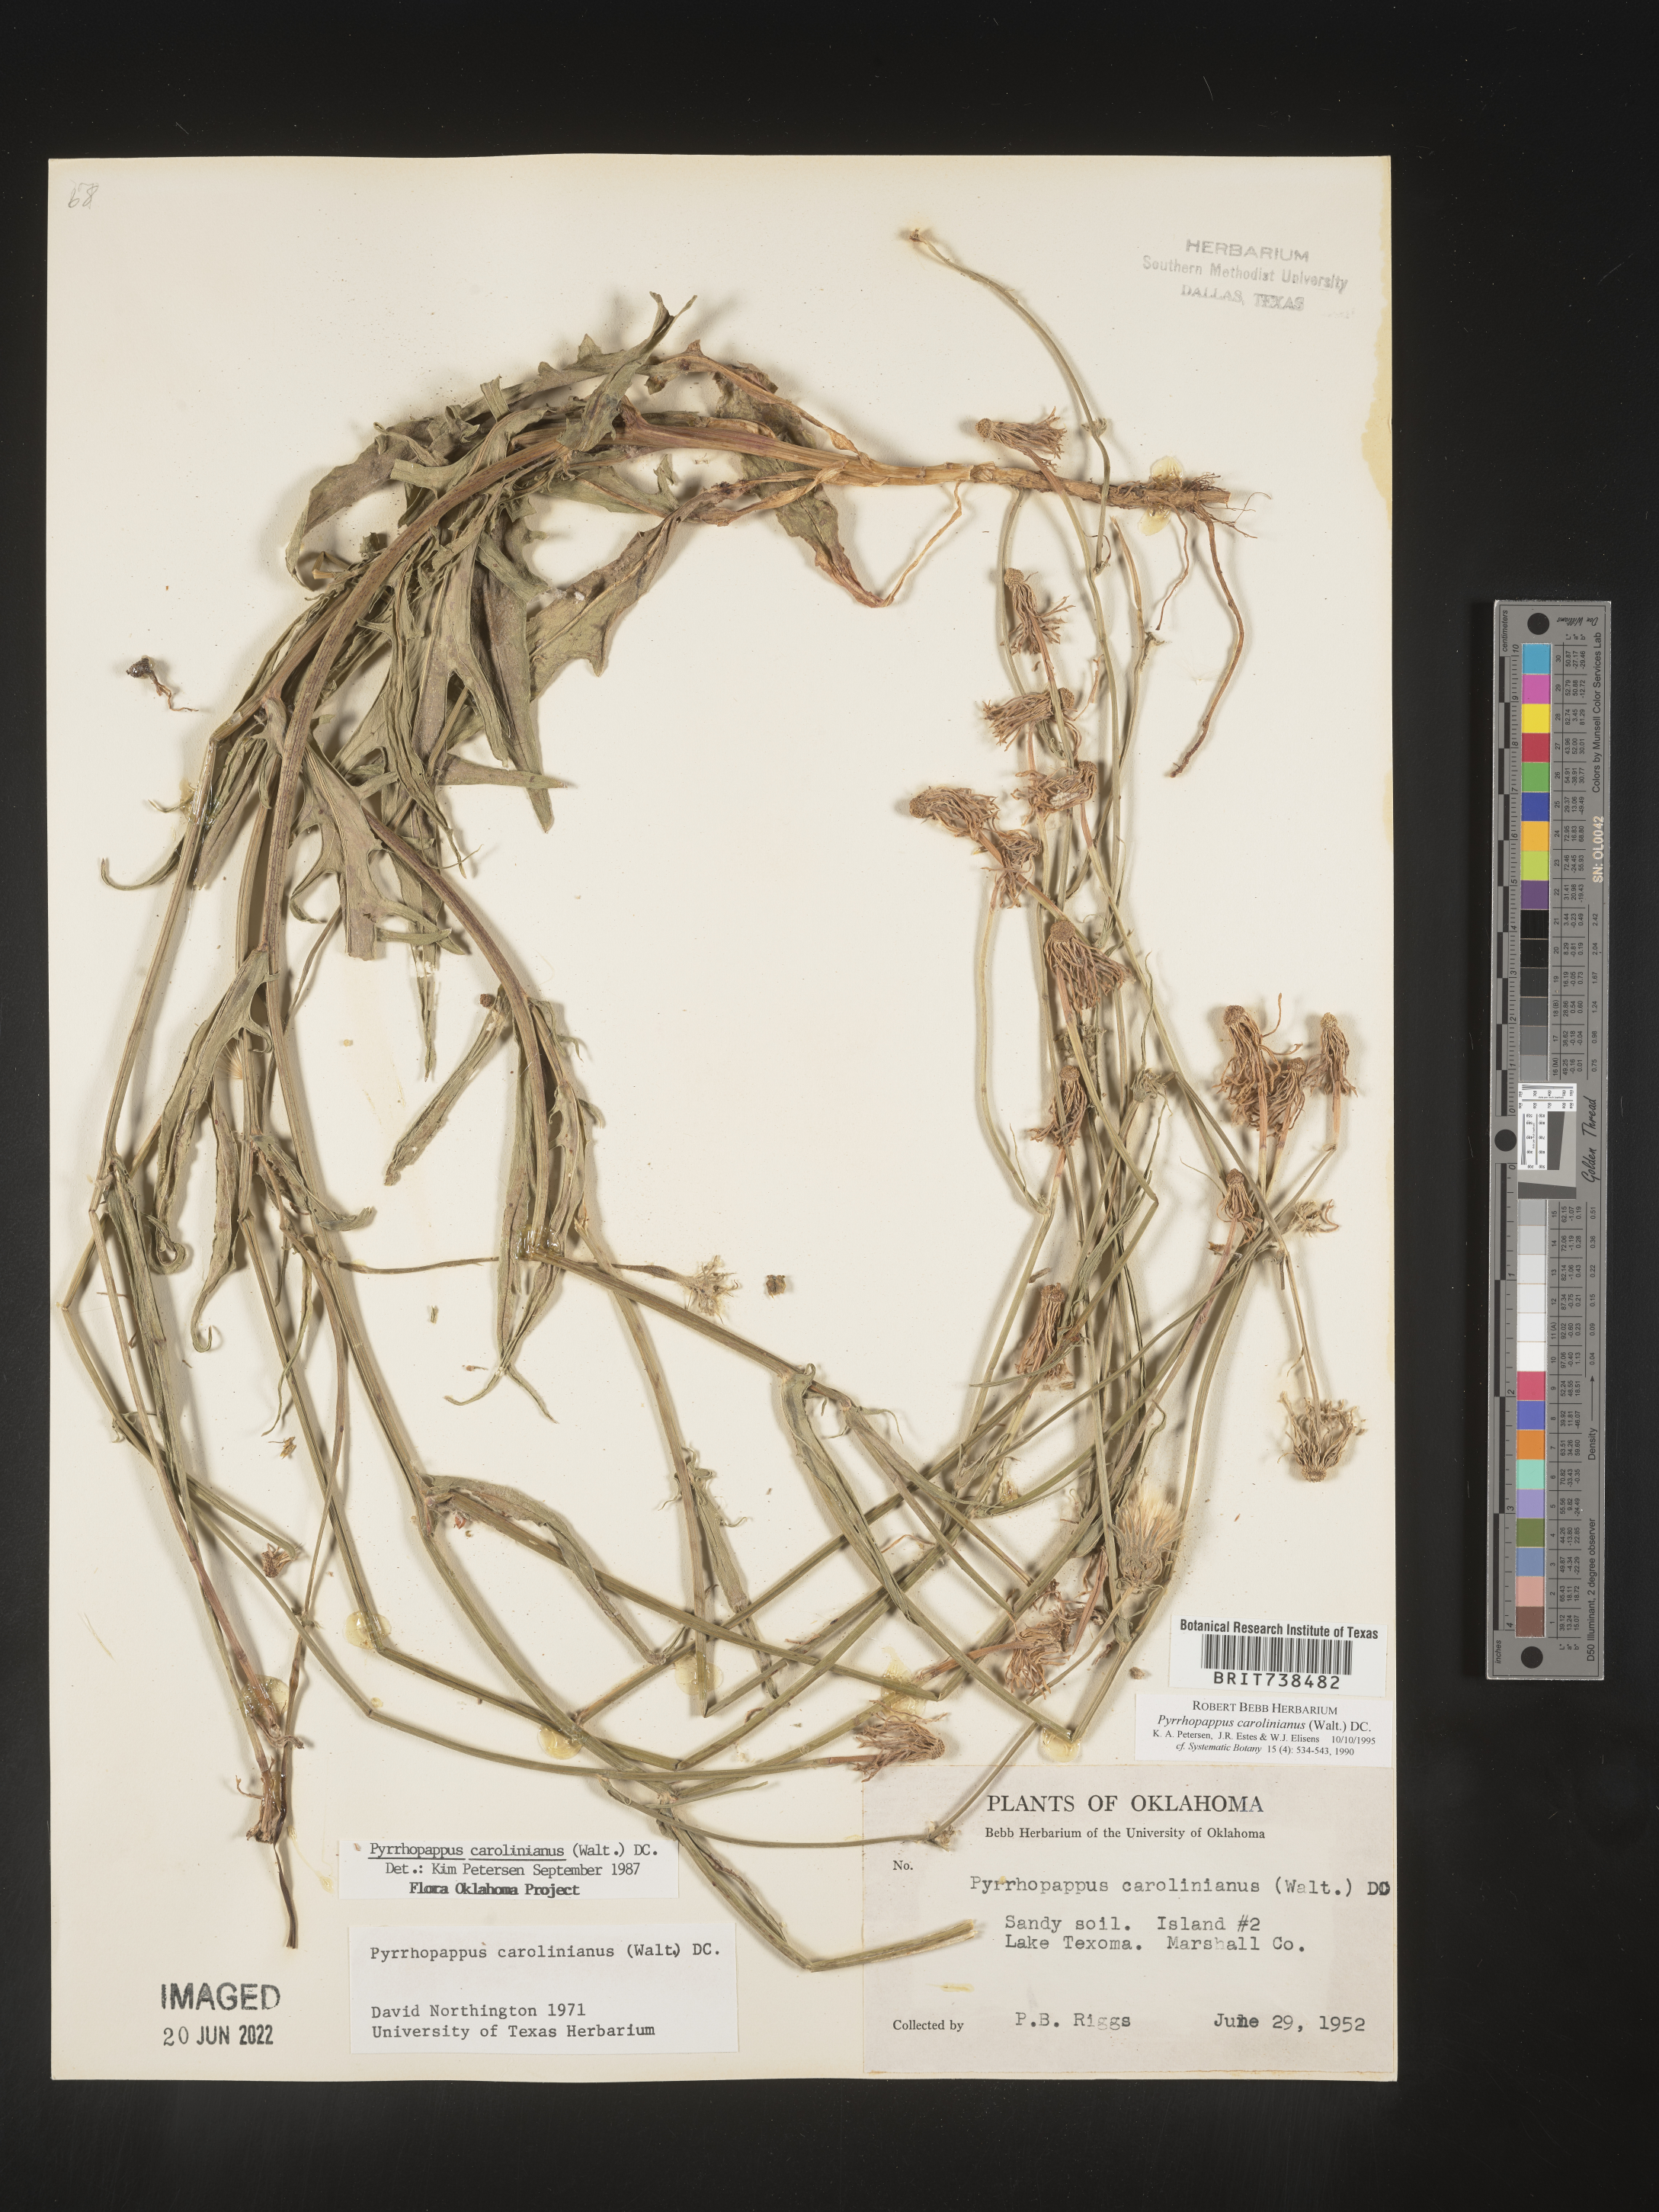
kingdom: Plantae
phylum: Tracheophyta
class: Magnoliopsida
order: Asterales
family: Asteraceae
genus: Pyrrhopappus
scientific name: Pyrrhopappus carolinianus
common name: Carolina desert-chicory
